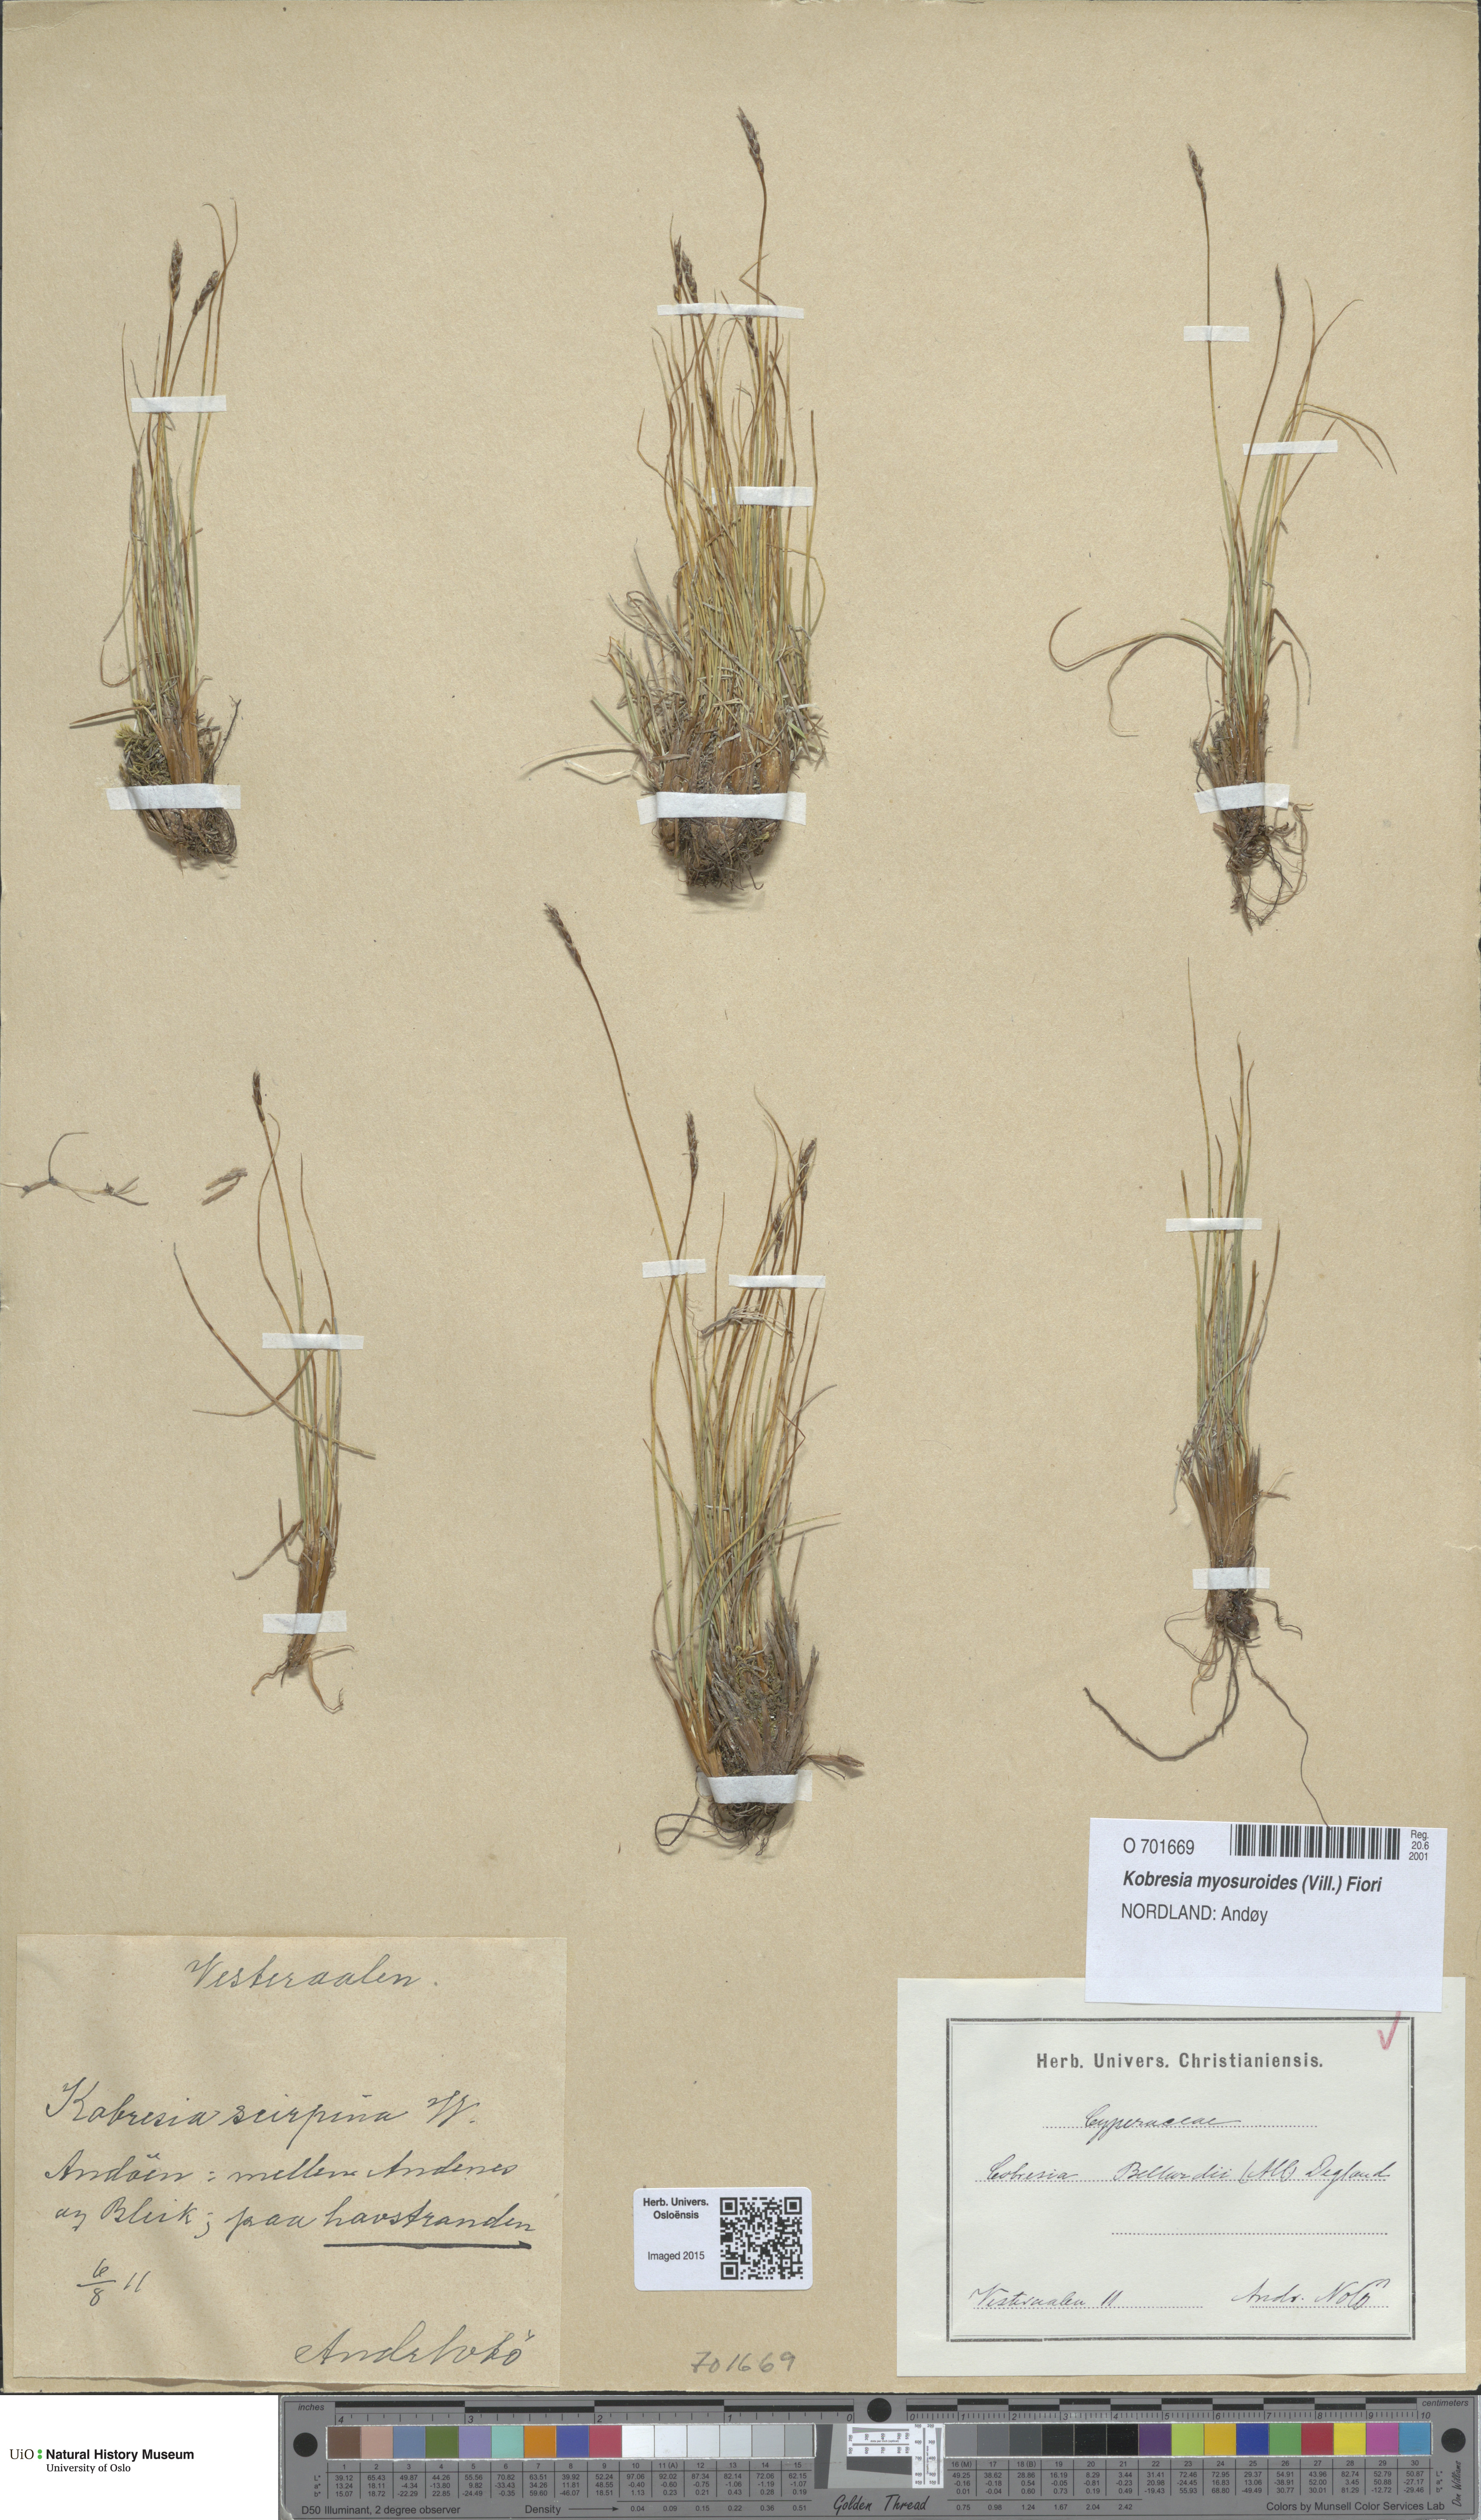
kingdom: Plantae
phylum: Tracheophyta
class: Liliopsida
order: Poales
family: Cyperaceae
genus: Carex
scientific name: Carex myosuroides
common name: Bellard's bog sedge
